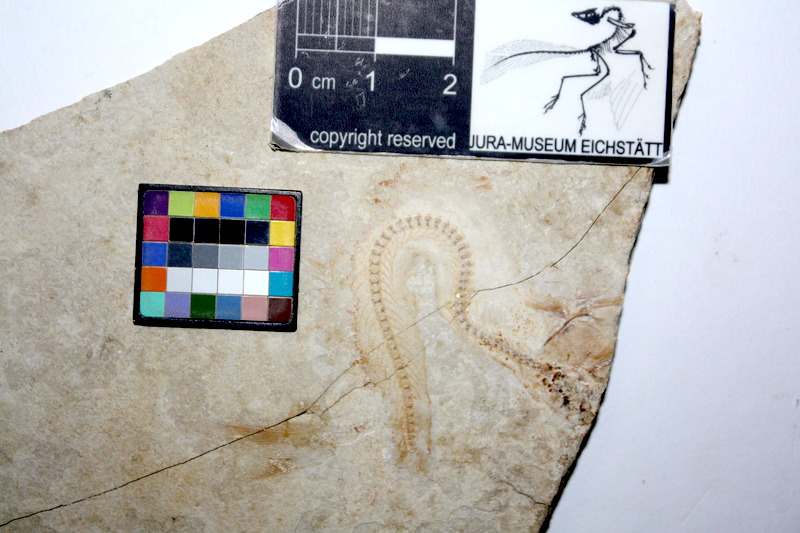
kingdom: Animalia
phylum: Chordata
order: Salmoniformes
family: Orthogonikleithridae
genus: Orthogonikleithrus
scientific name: Orthogonikleithrus hoelli
